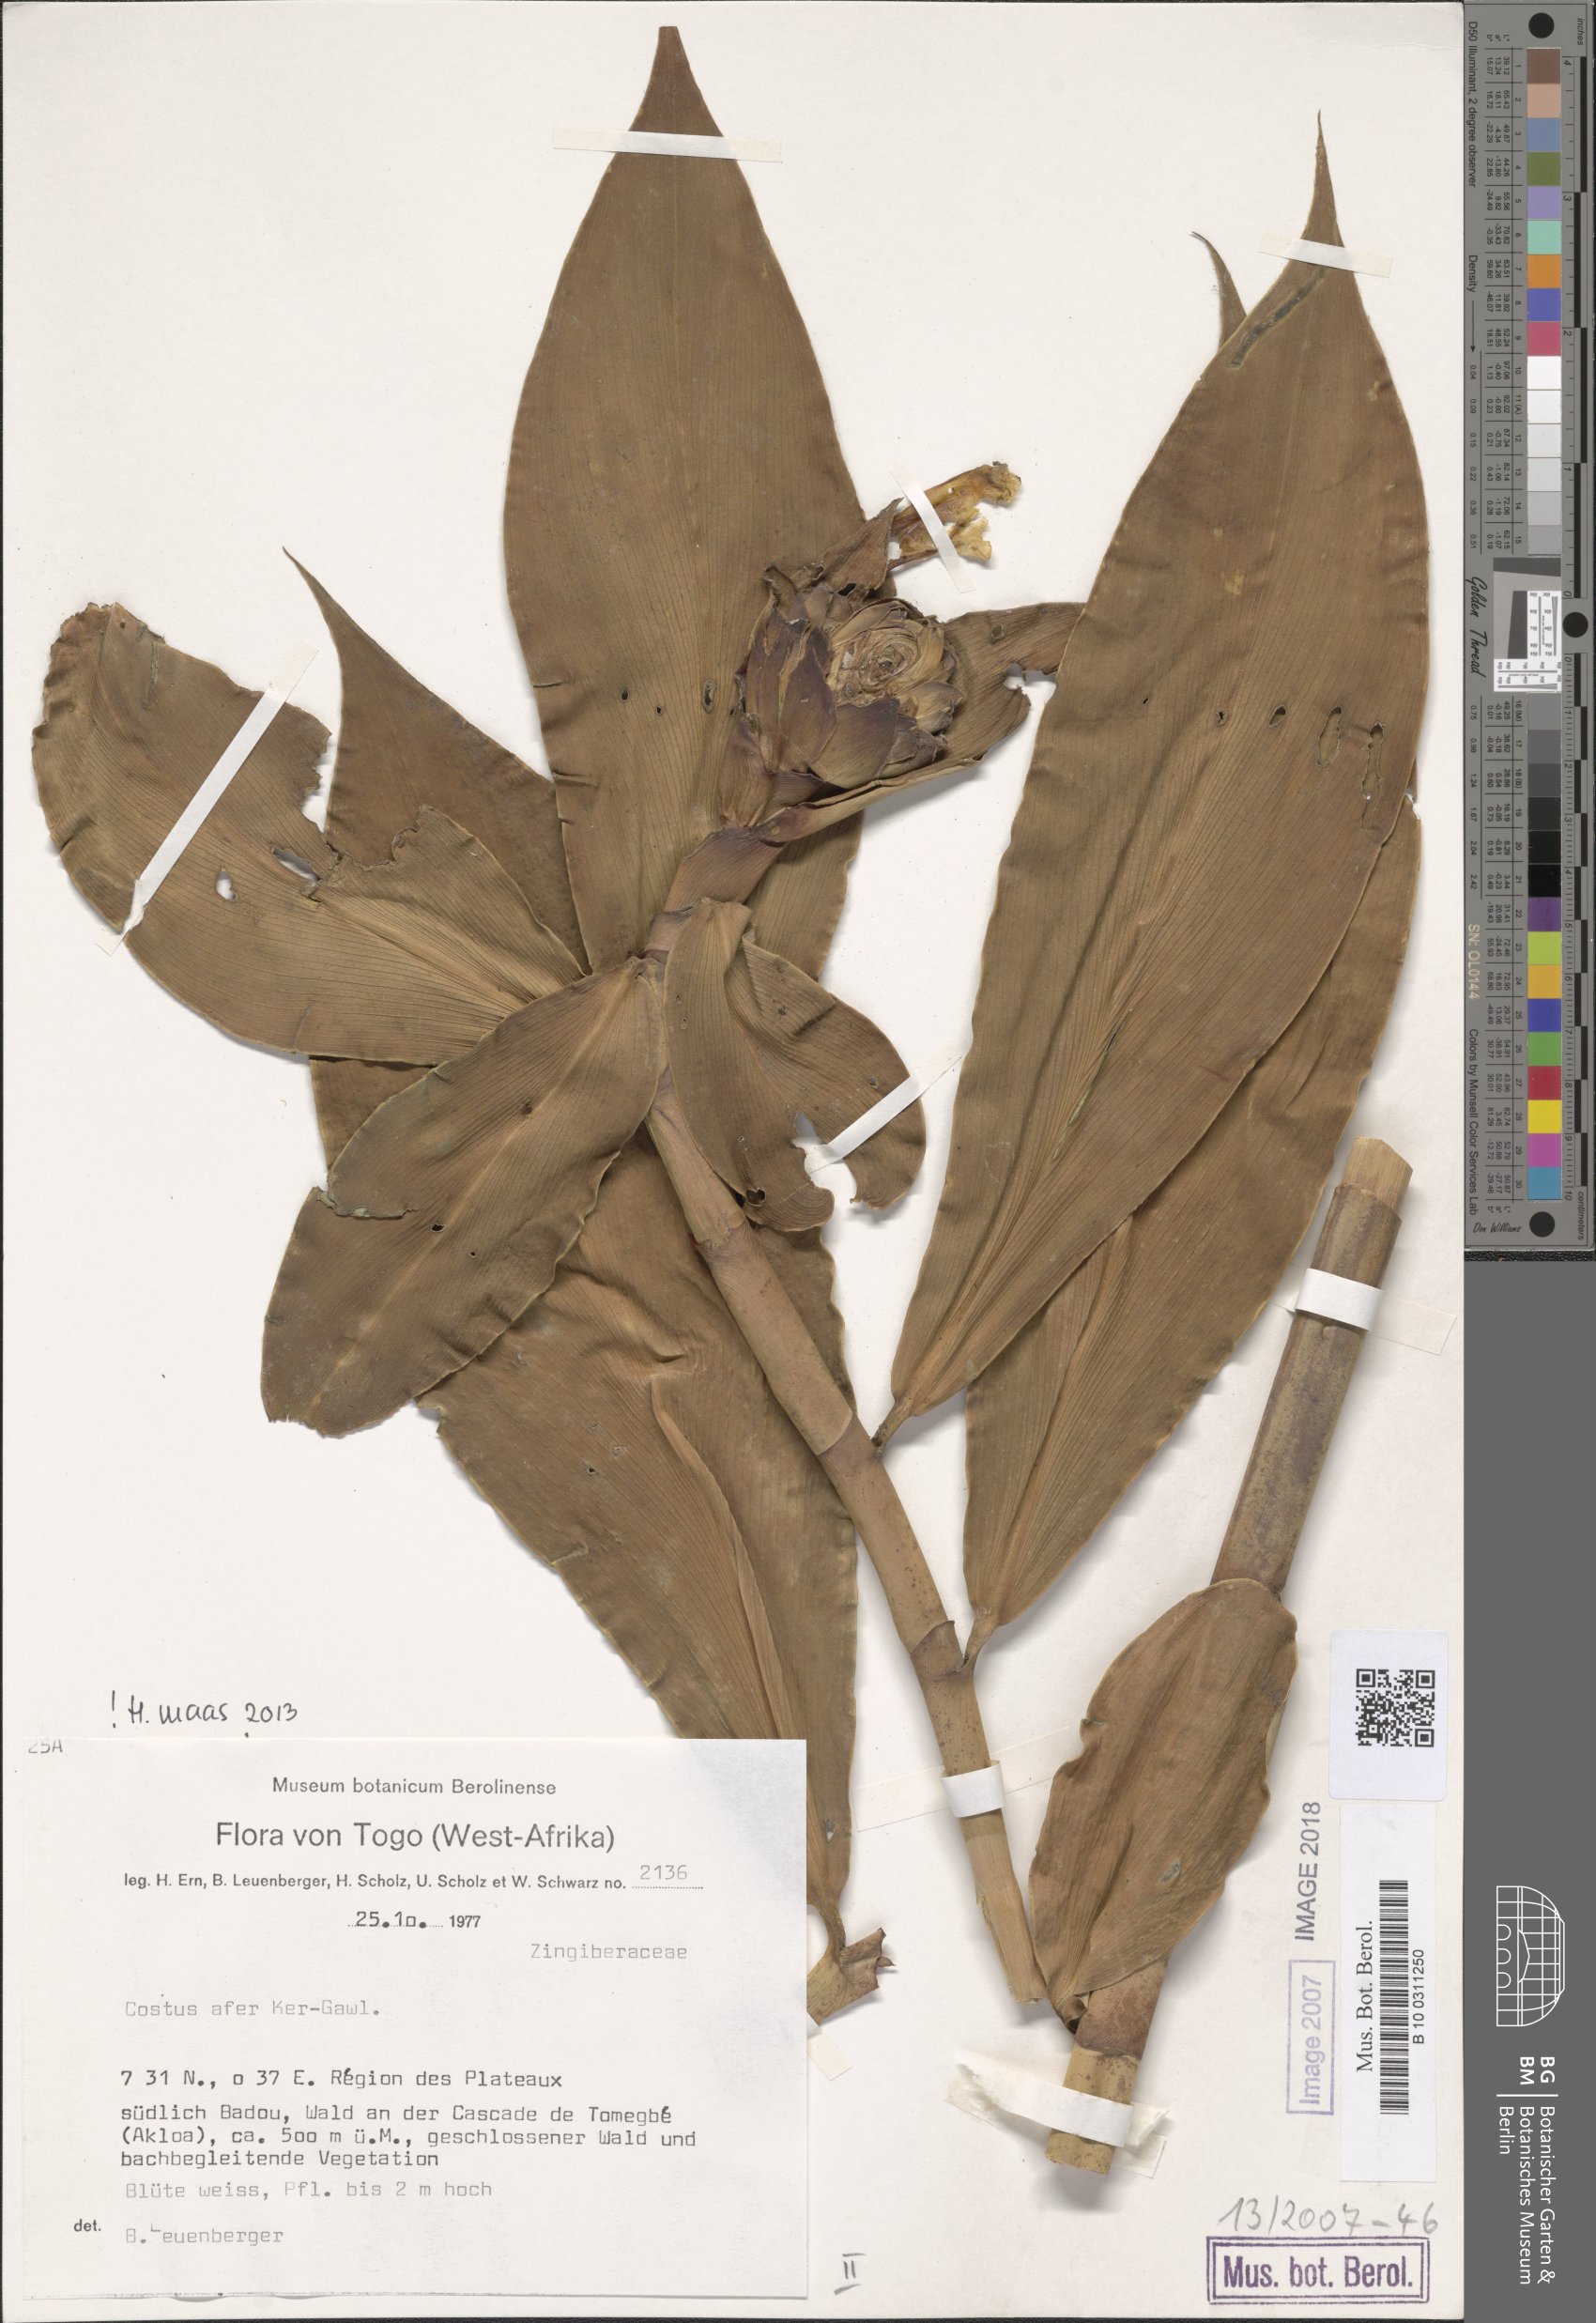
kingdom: Plantae
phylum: Tracheophyta
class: Liliopsida
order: Zingiberales
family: Costaceae
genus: Costus
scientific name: Costus afer
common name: Spiral-ginger
